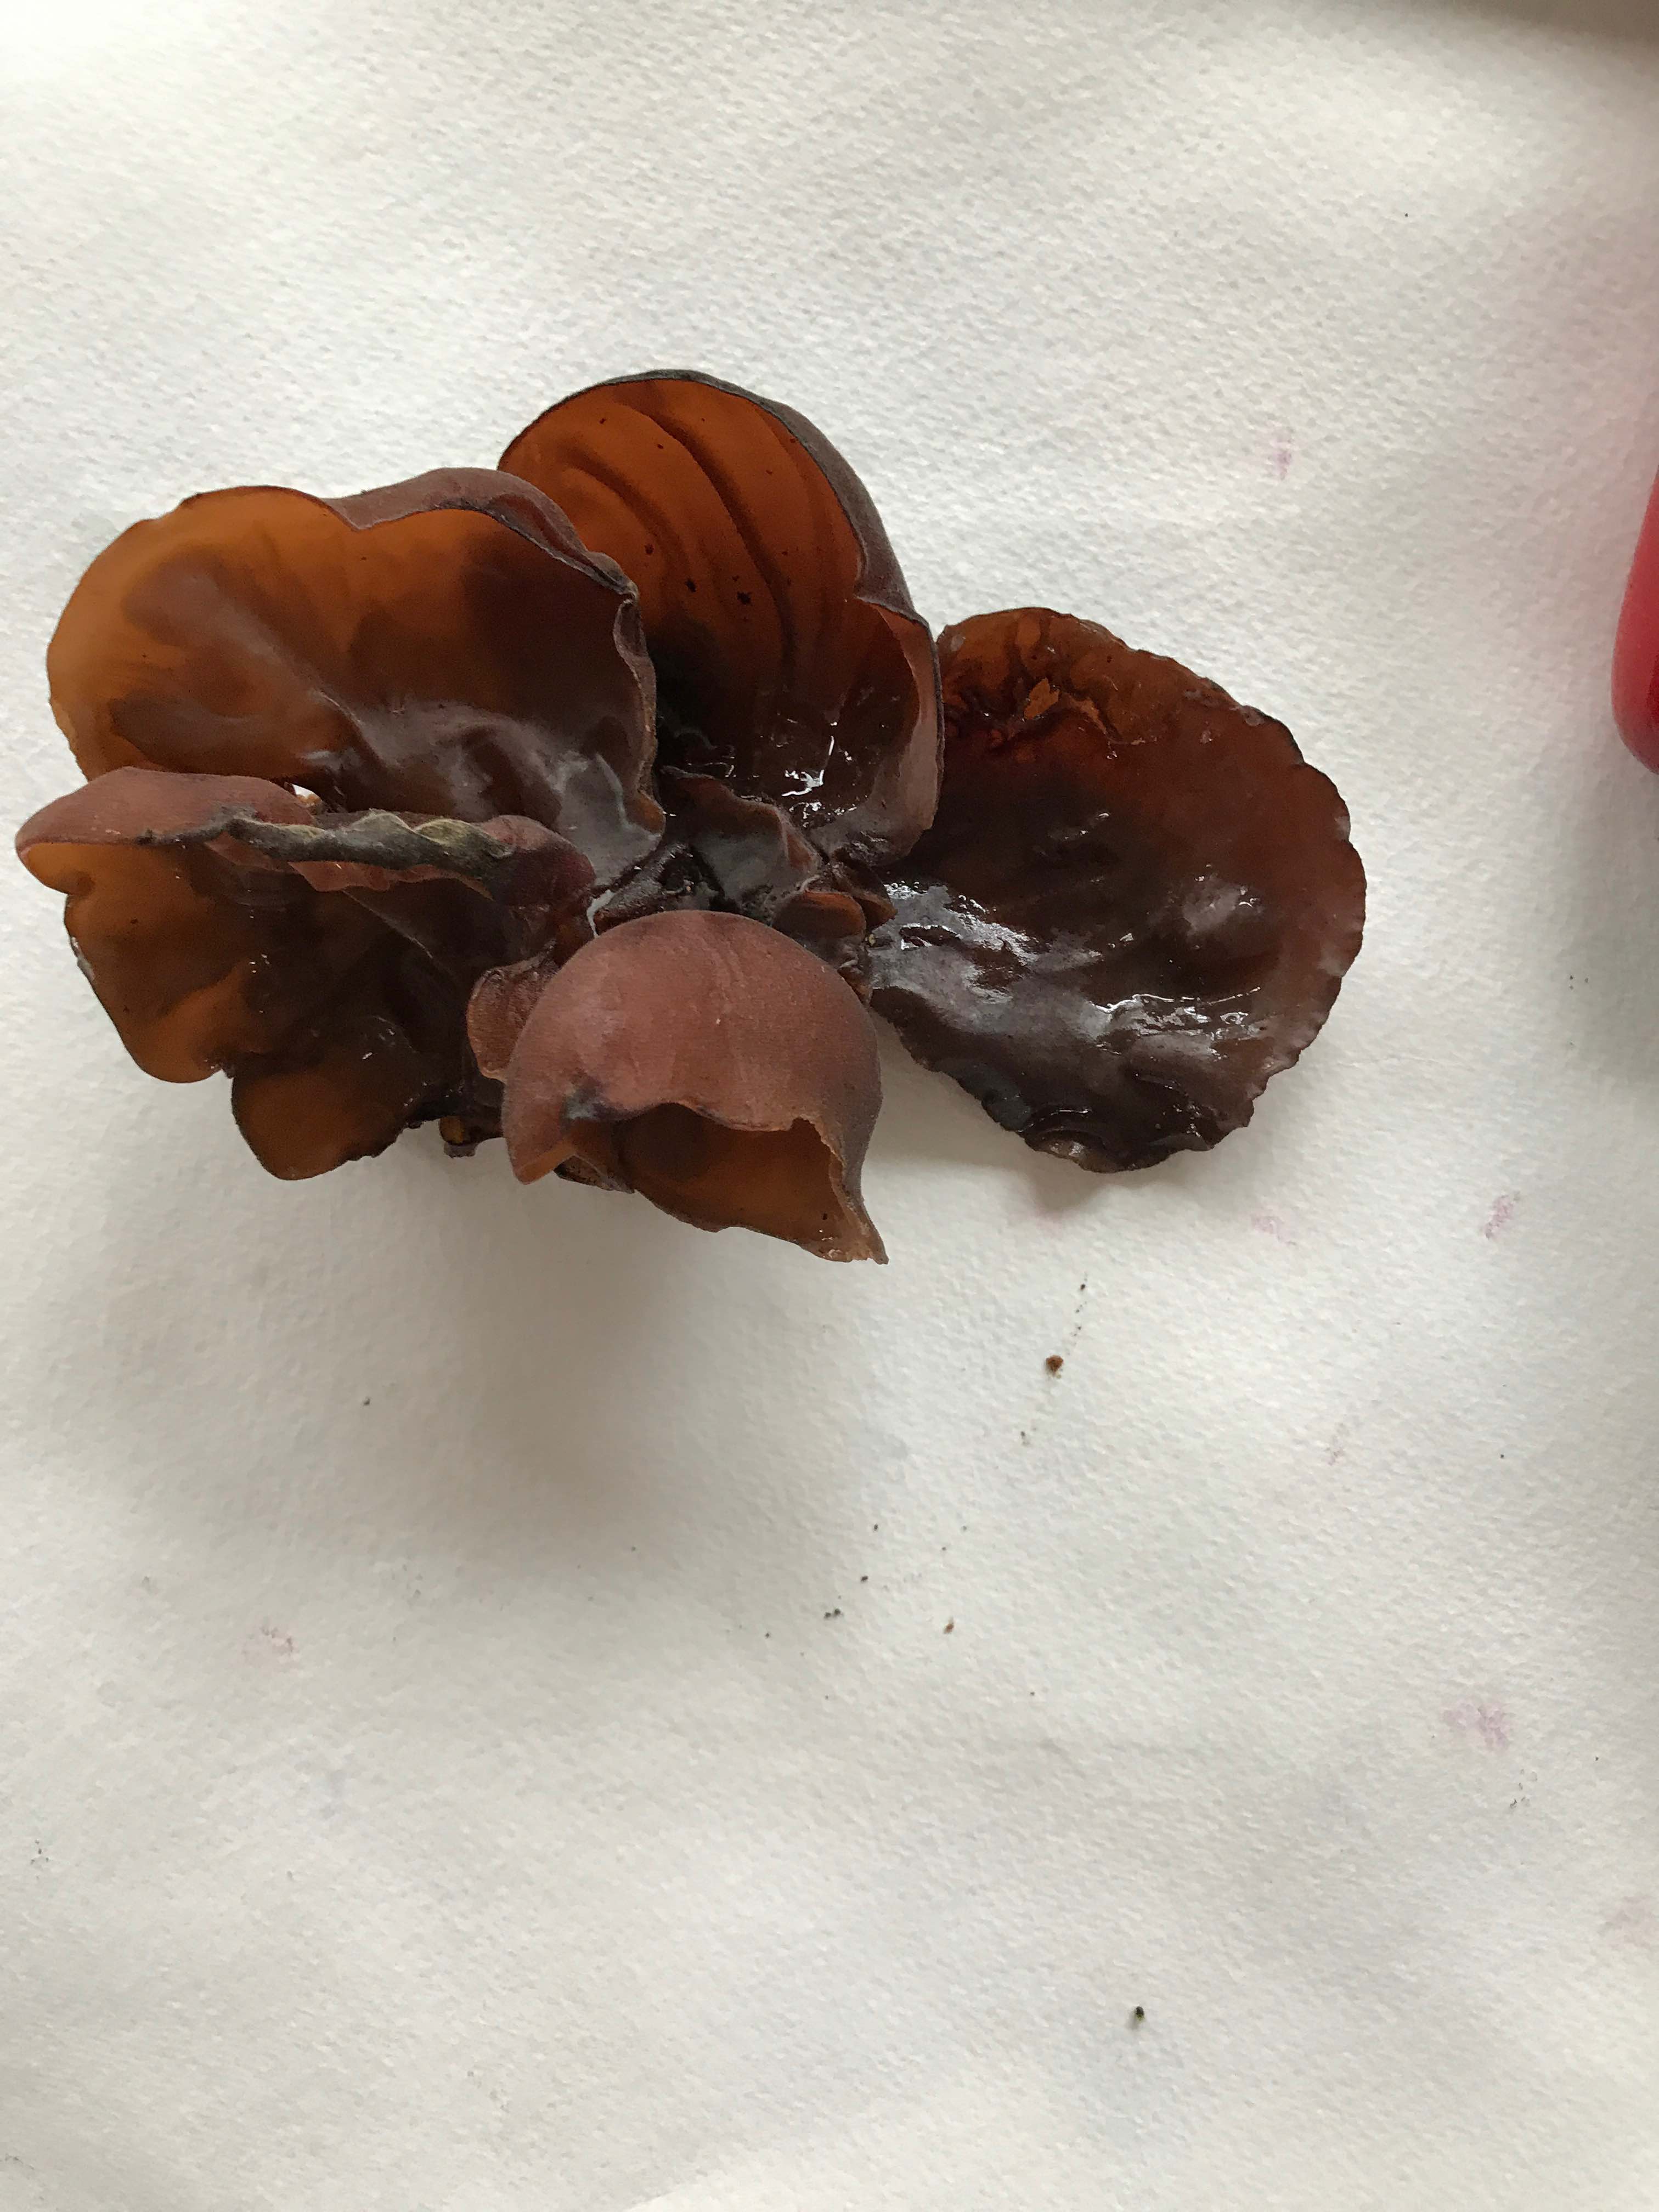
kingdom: Fungi
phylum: Basidiomycota
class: Agaricomycetes
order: Auriculariales
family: Auriculariaceae
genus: Auricularia
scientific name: Auricularia auricula-judae
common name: almindelig judasøre
